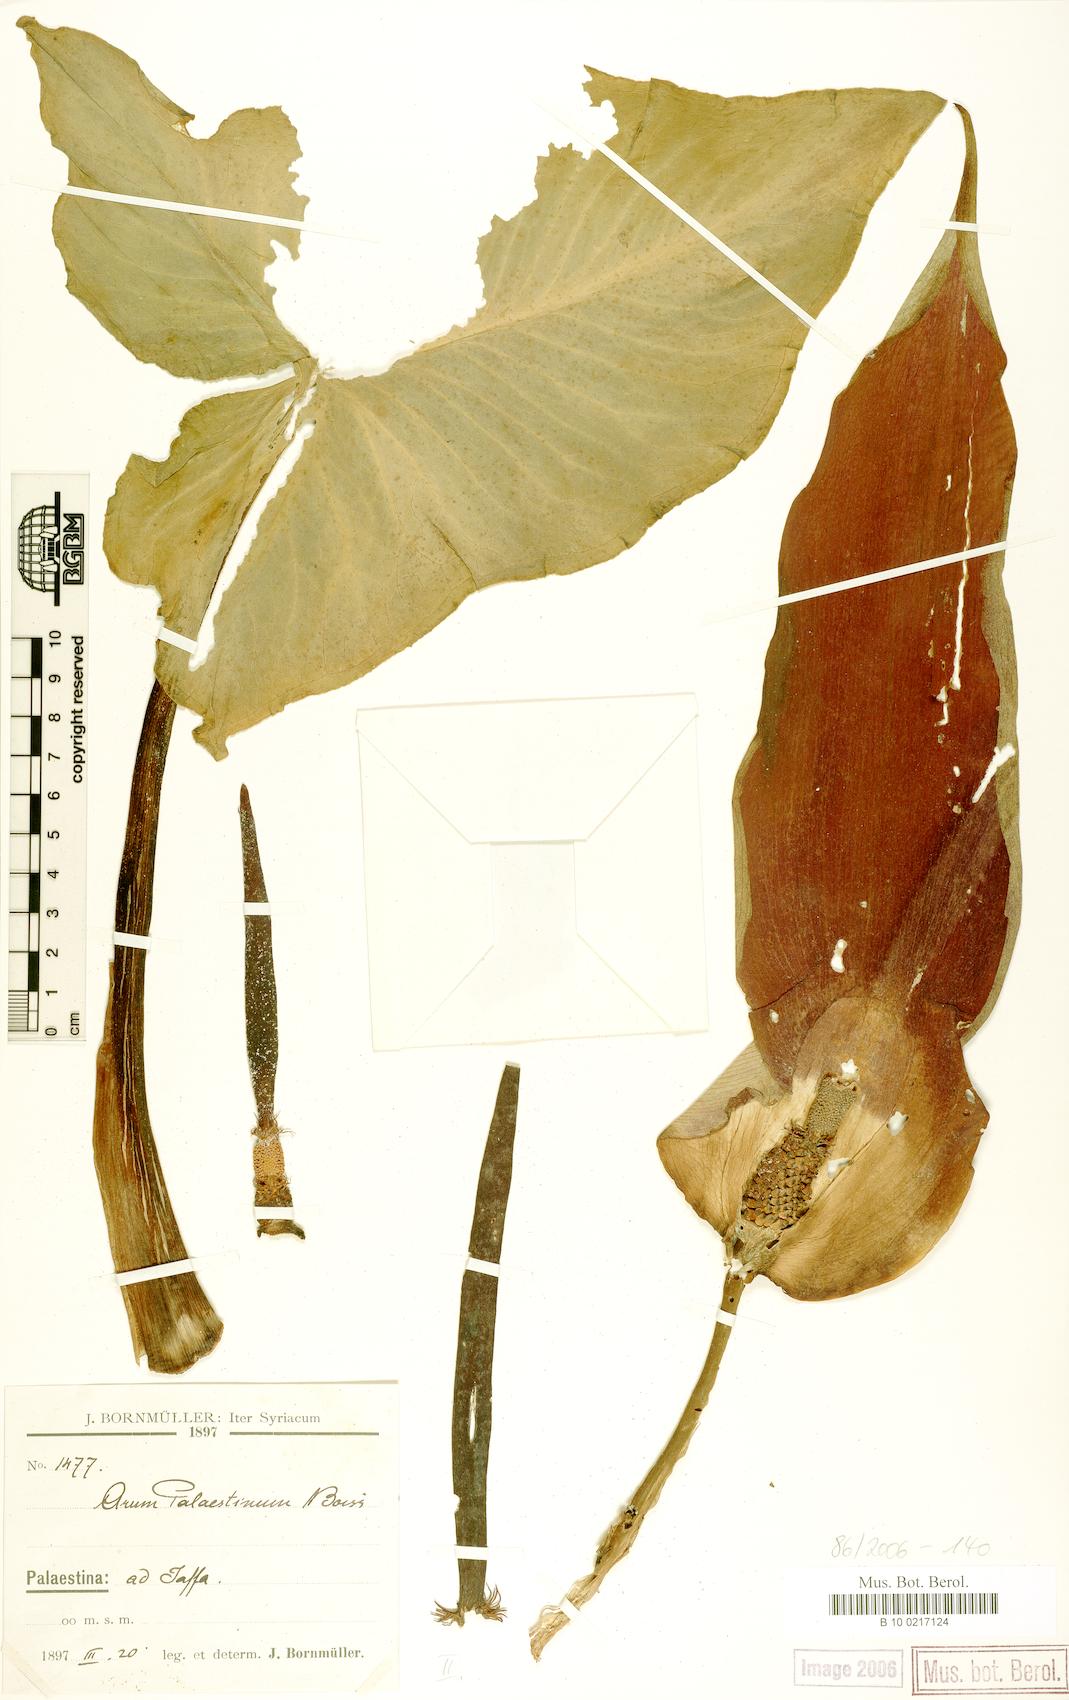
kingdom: Plantae
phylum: Tracheophyta
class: Liliopsida
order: Alismatales
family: Araceae
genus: Arum
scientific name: Arum palaestinum
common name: Solomon's lily
